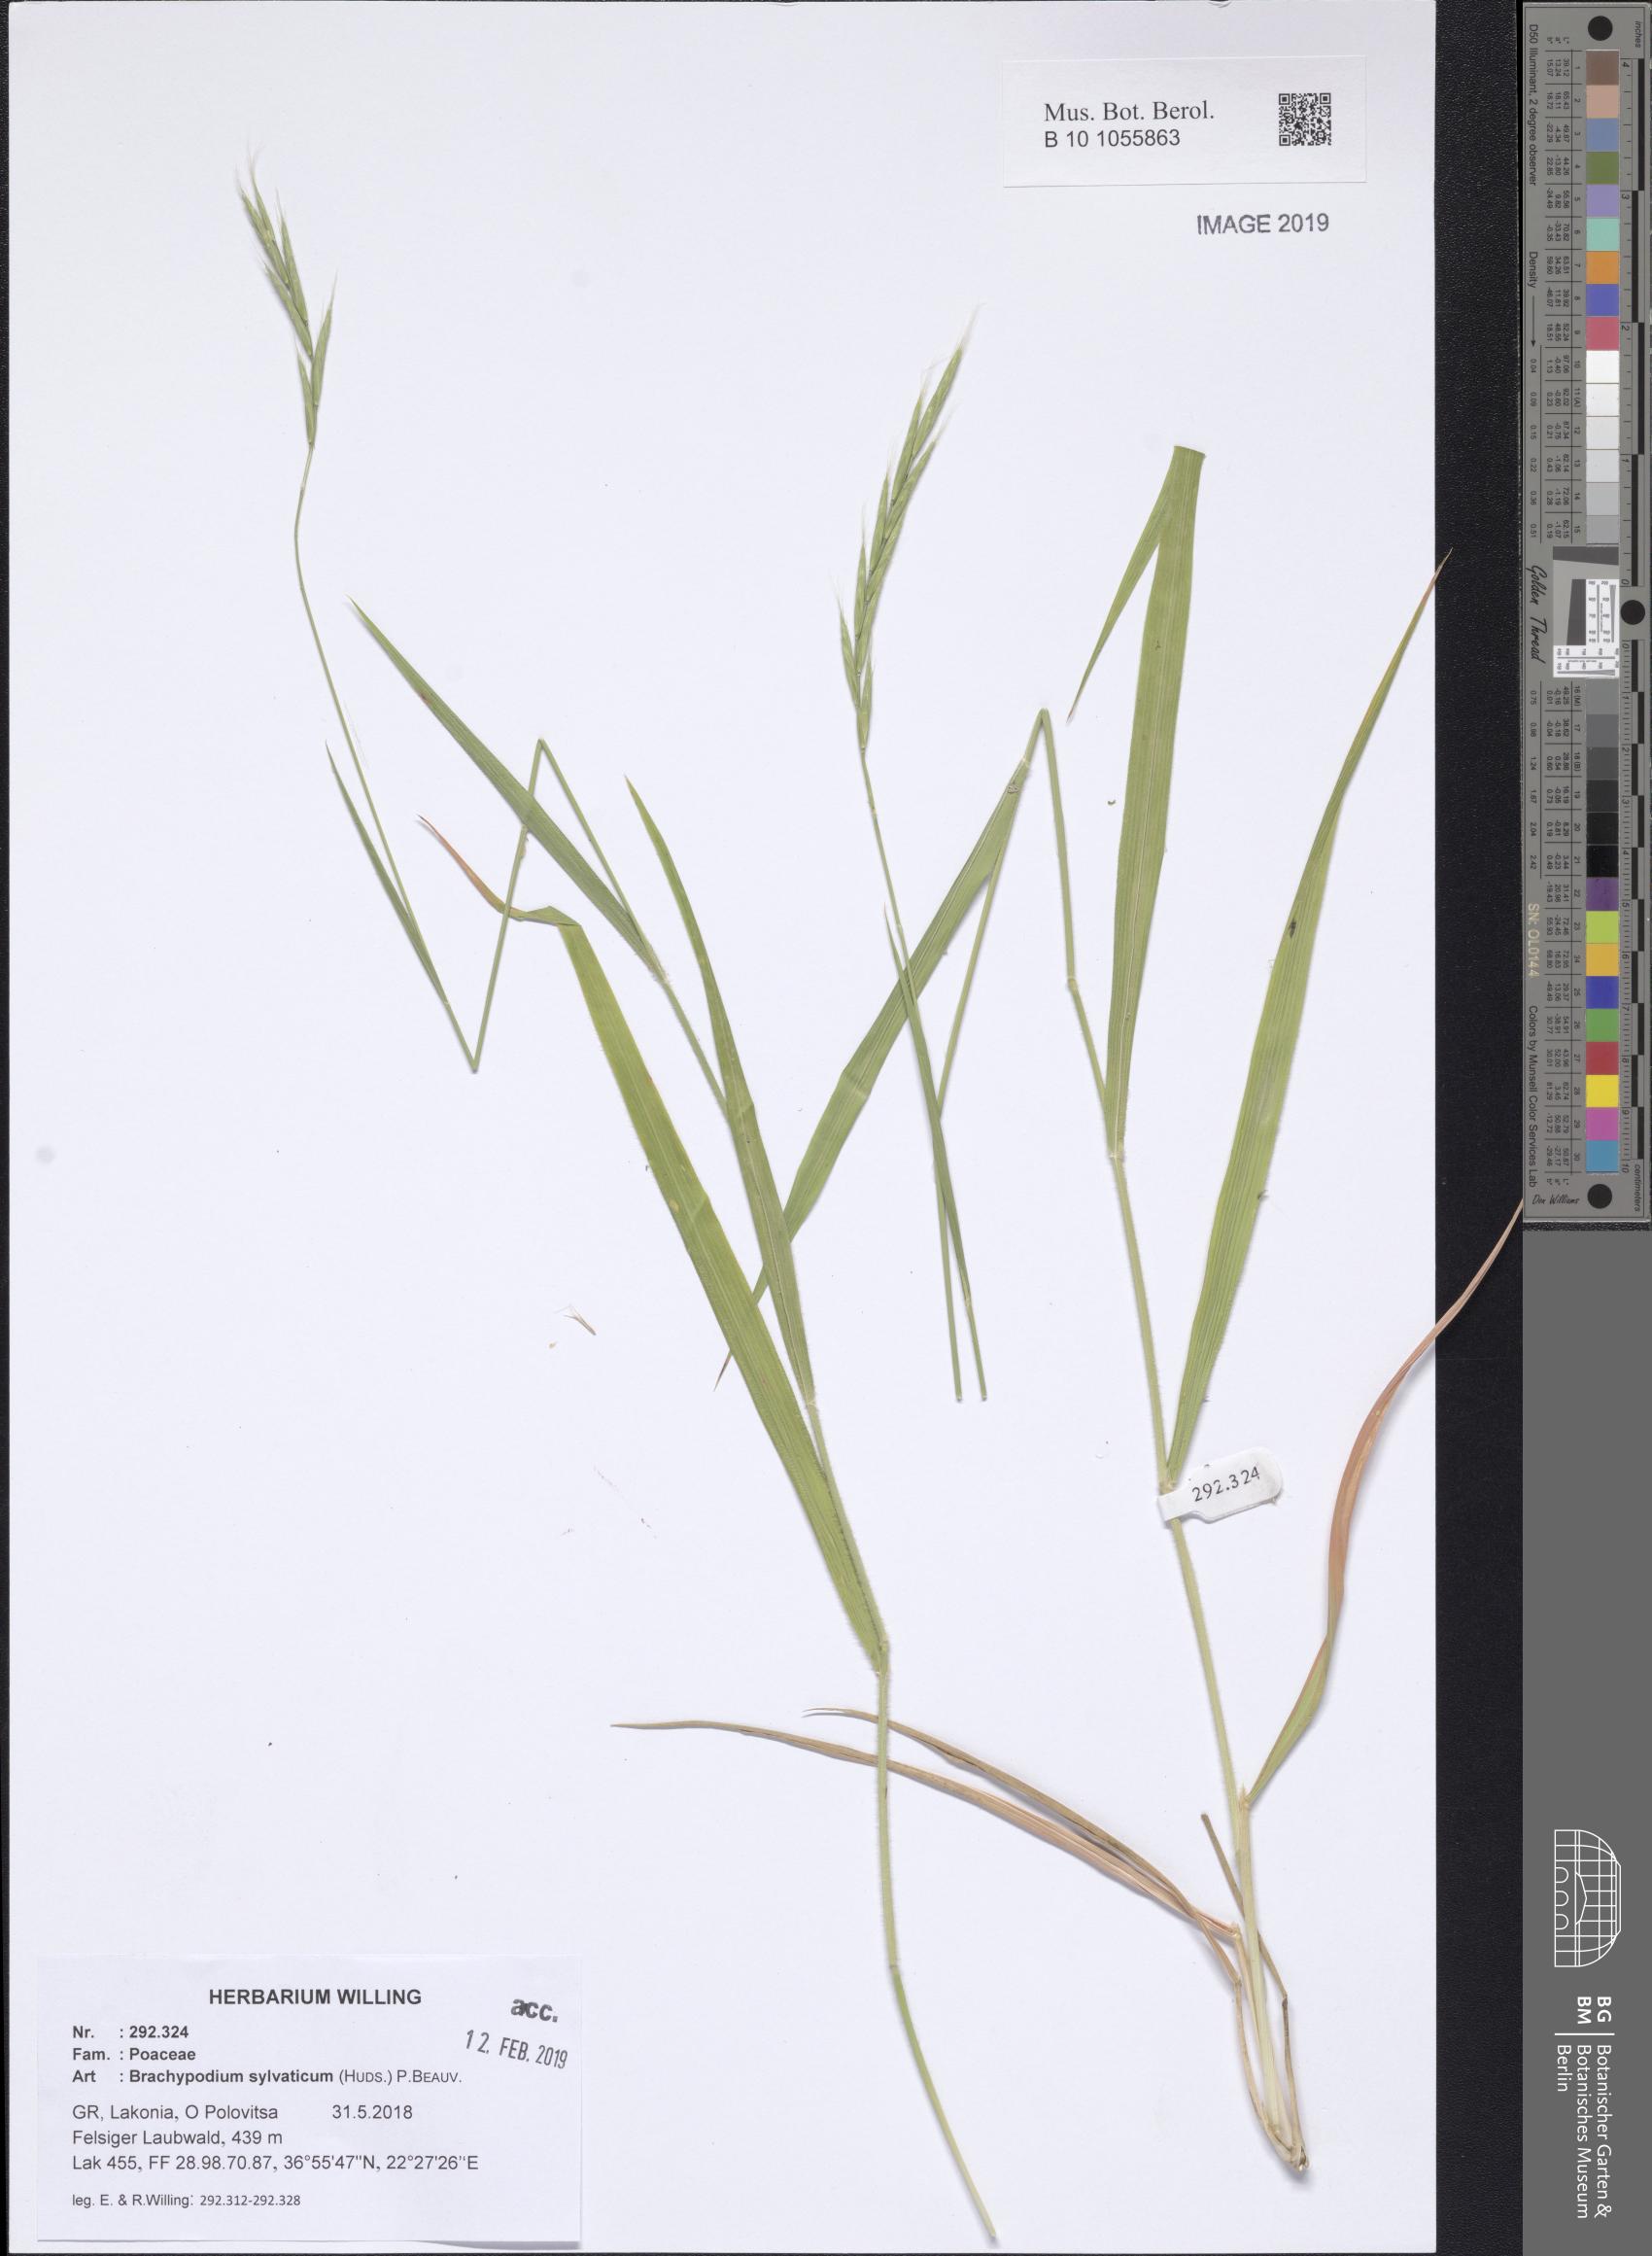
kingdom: Plantae
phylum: Tracheophyta
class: Liliopsida
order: Poales
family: Poaceae
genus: Brachypodium
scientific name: Brachypodium sylvaticum
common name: False-brome
